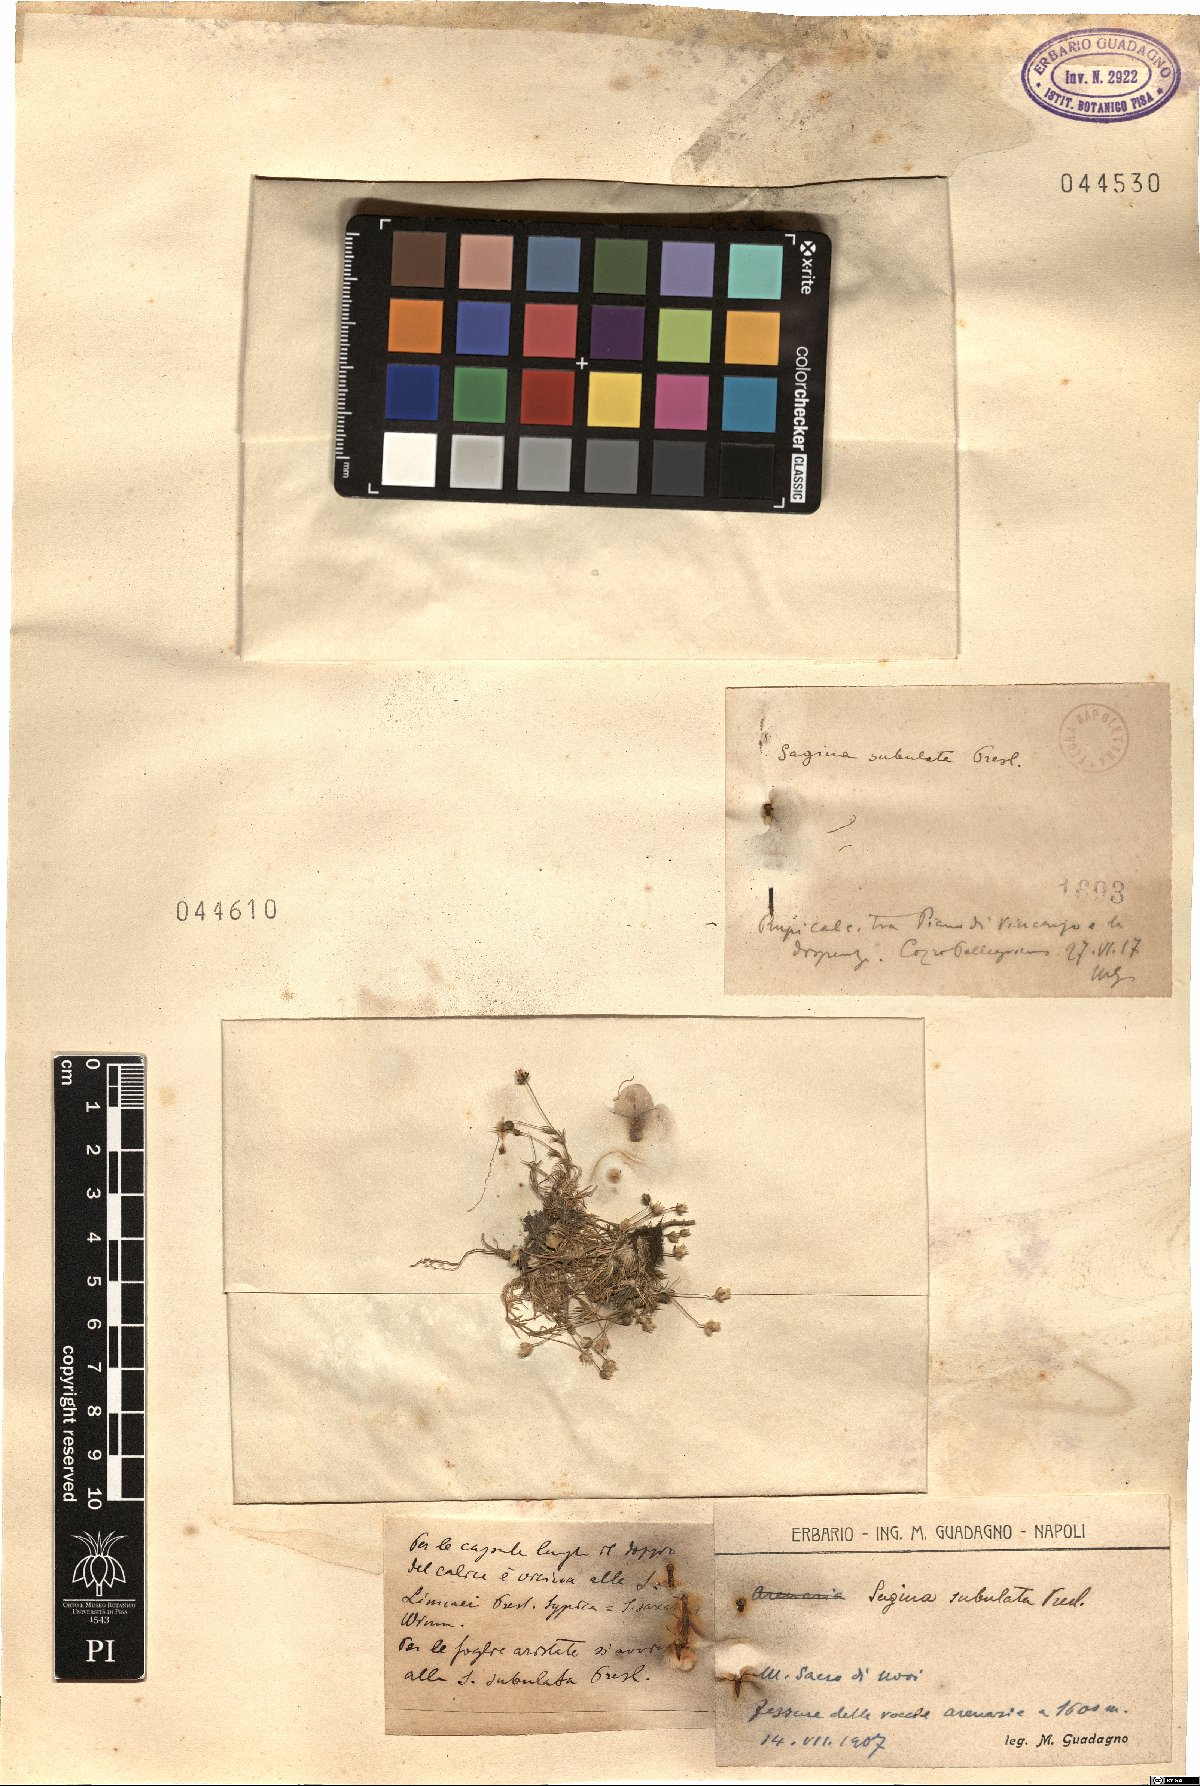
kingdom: Plantae
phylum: Tracheophyta
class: Magnoliopsida
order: Caryophyllales
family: Caryophyllaceae
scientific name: Caryophyllaceae
